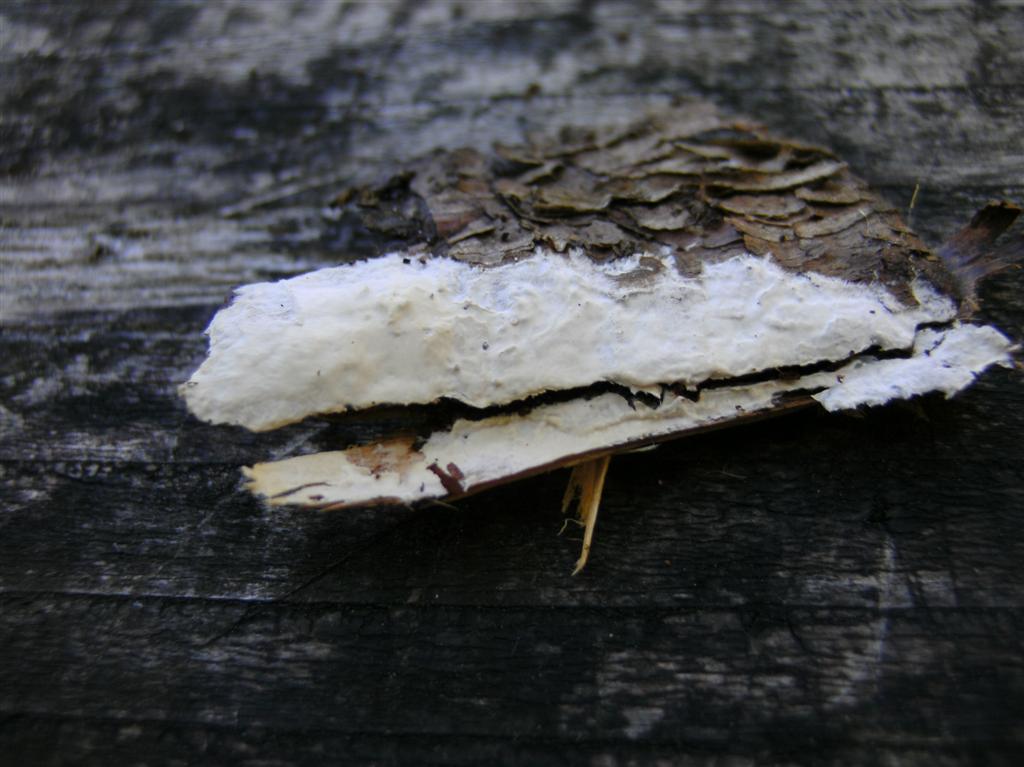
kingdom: Fungi
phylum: Basidiomycota
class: Agaricomycetes
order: Polyporales
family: Irpicaceae
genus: Efibula
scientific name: Efibula tuberculata
